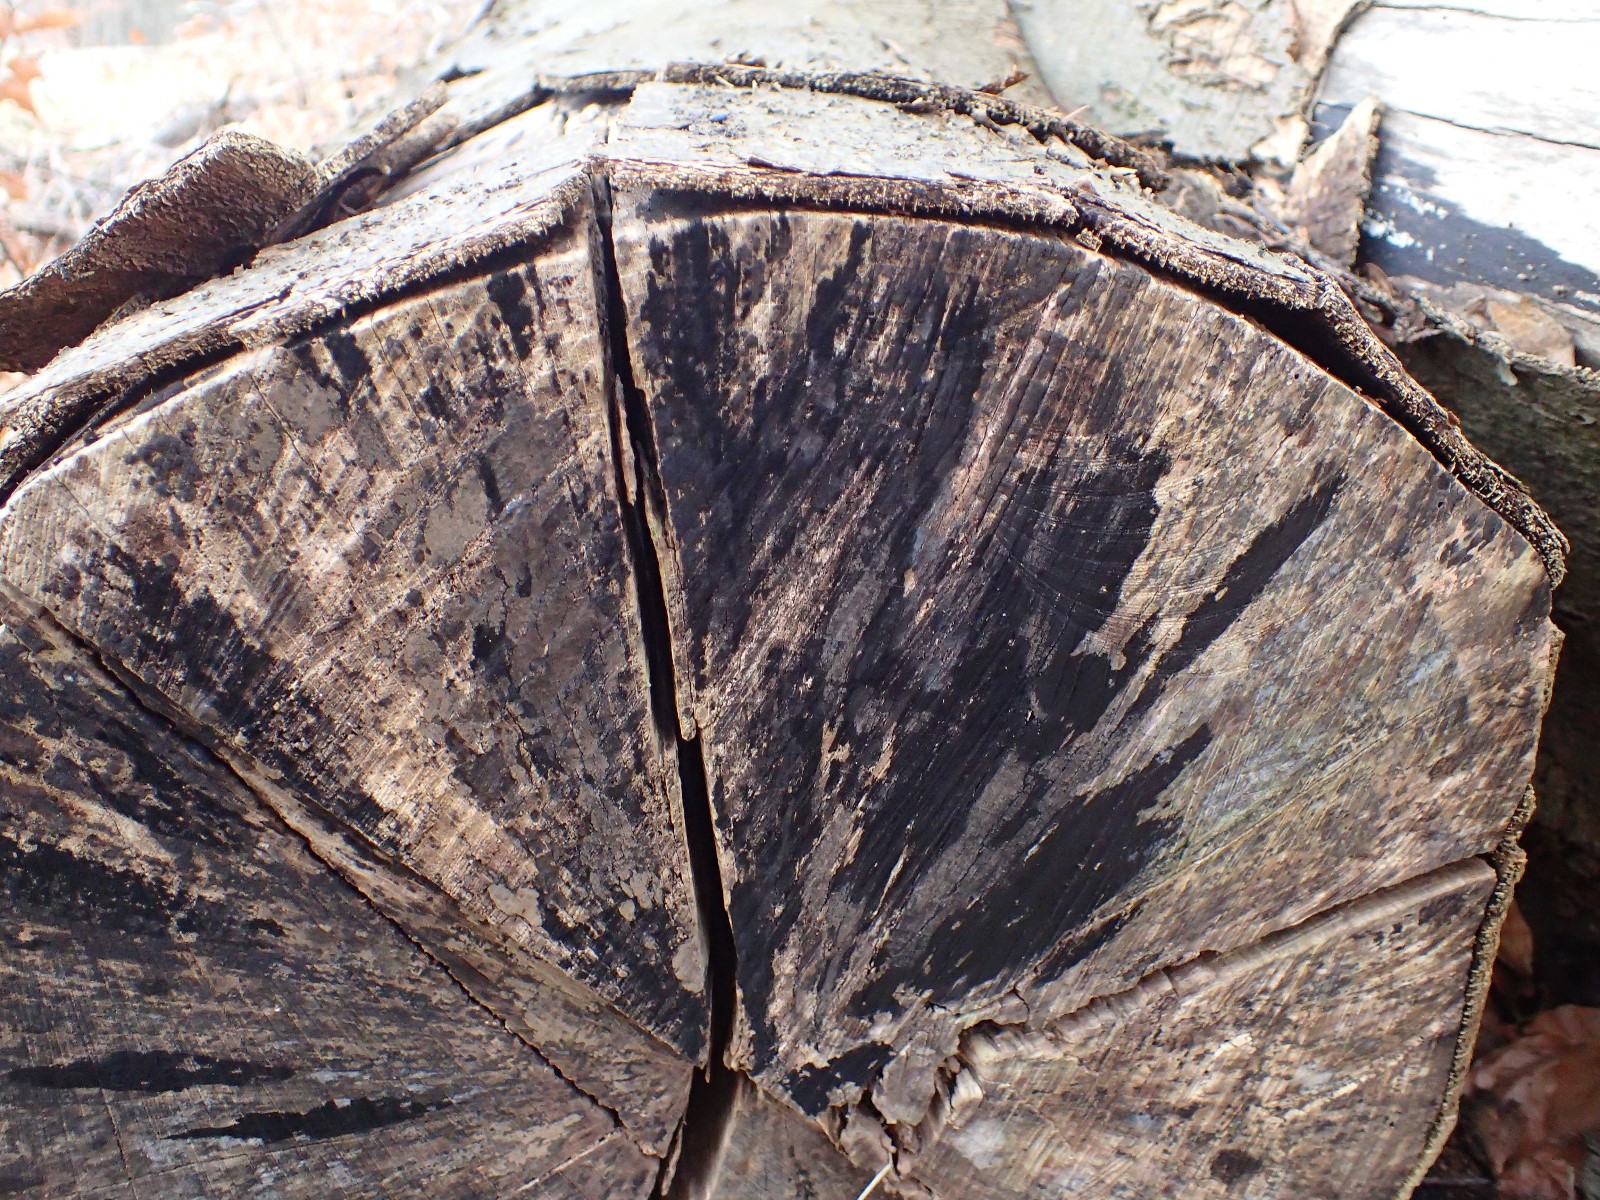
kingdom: Fungi
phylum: Ascomycota
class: Leotiomycetes
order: Helotiales
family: Helotiaceae
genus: Bispora
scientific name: Bispora pallescens
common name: måtte-snitskive
